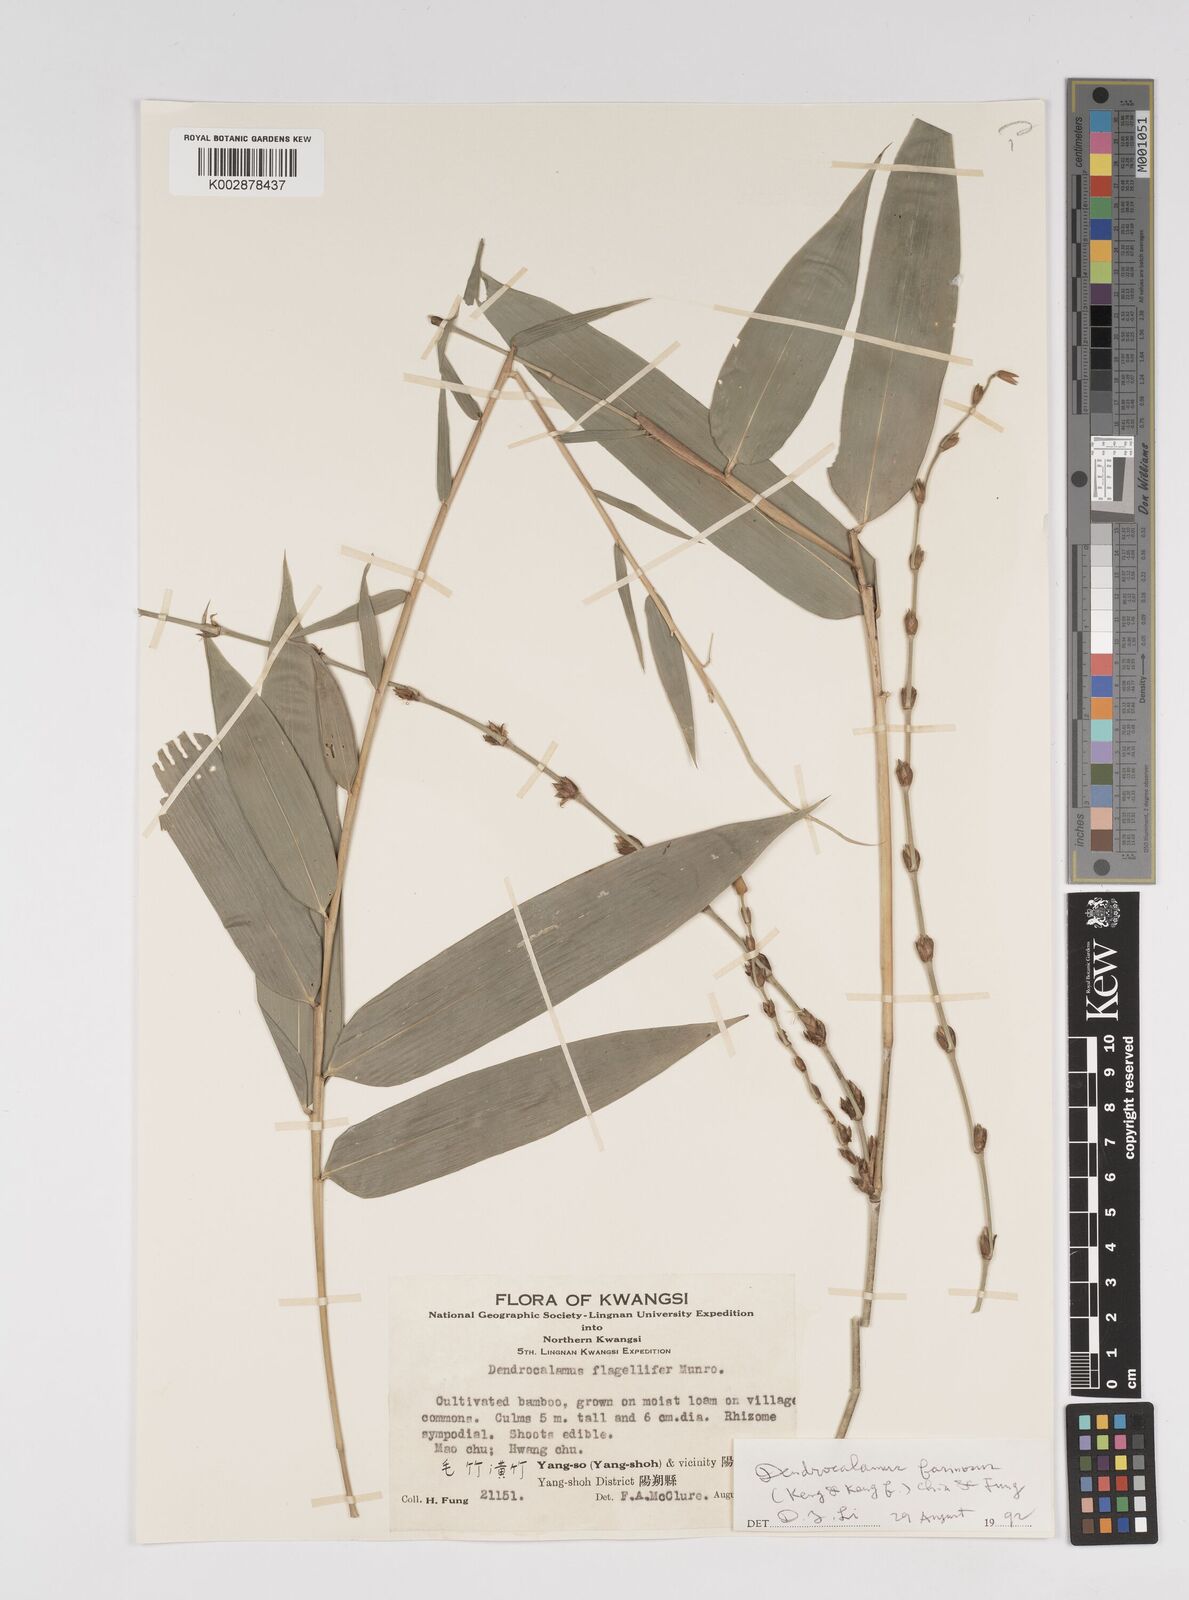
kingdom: Plantae
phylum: Tracheophyta
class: Liliopsida
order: Poales
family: Poaceae
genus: Dendrocalamus
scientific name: Dendrocalamus asper
